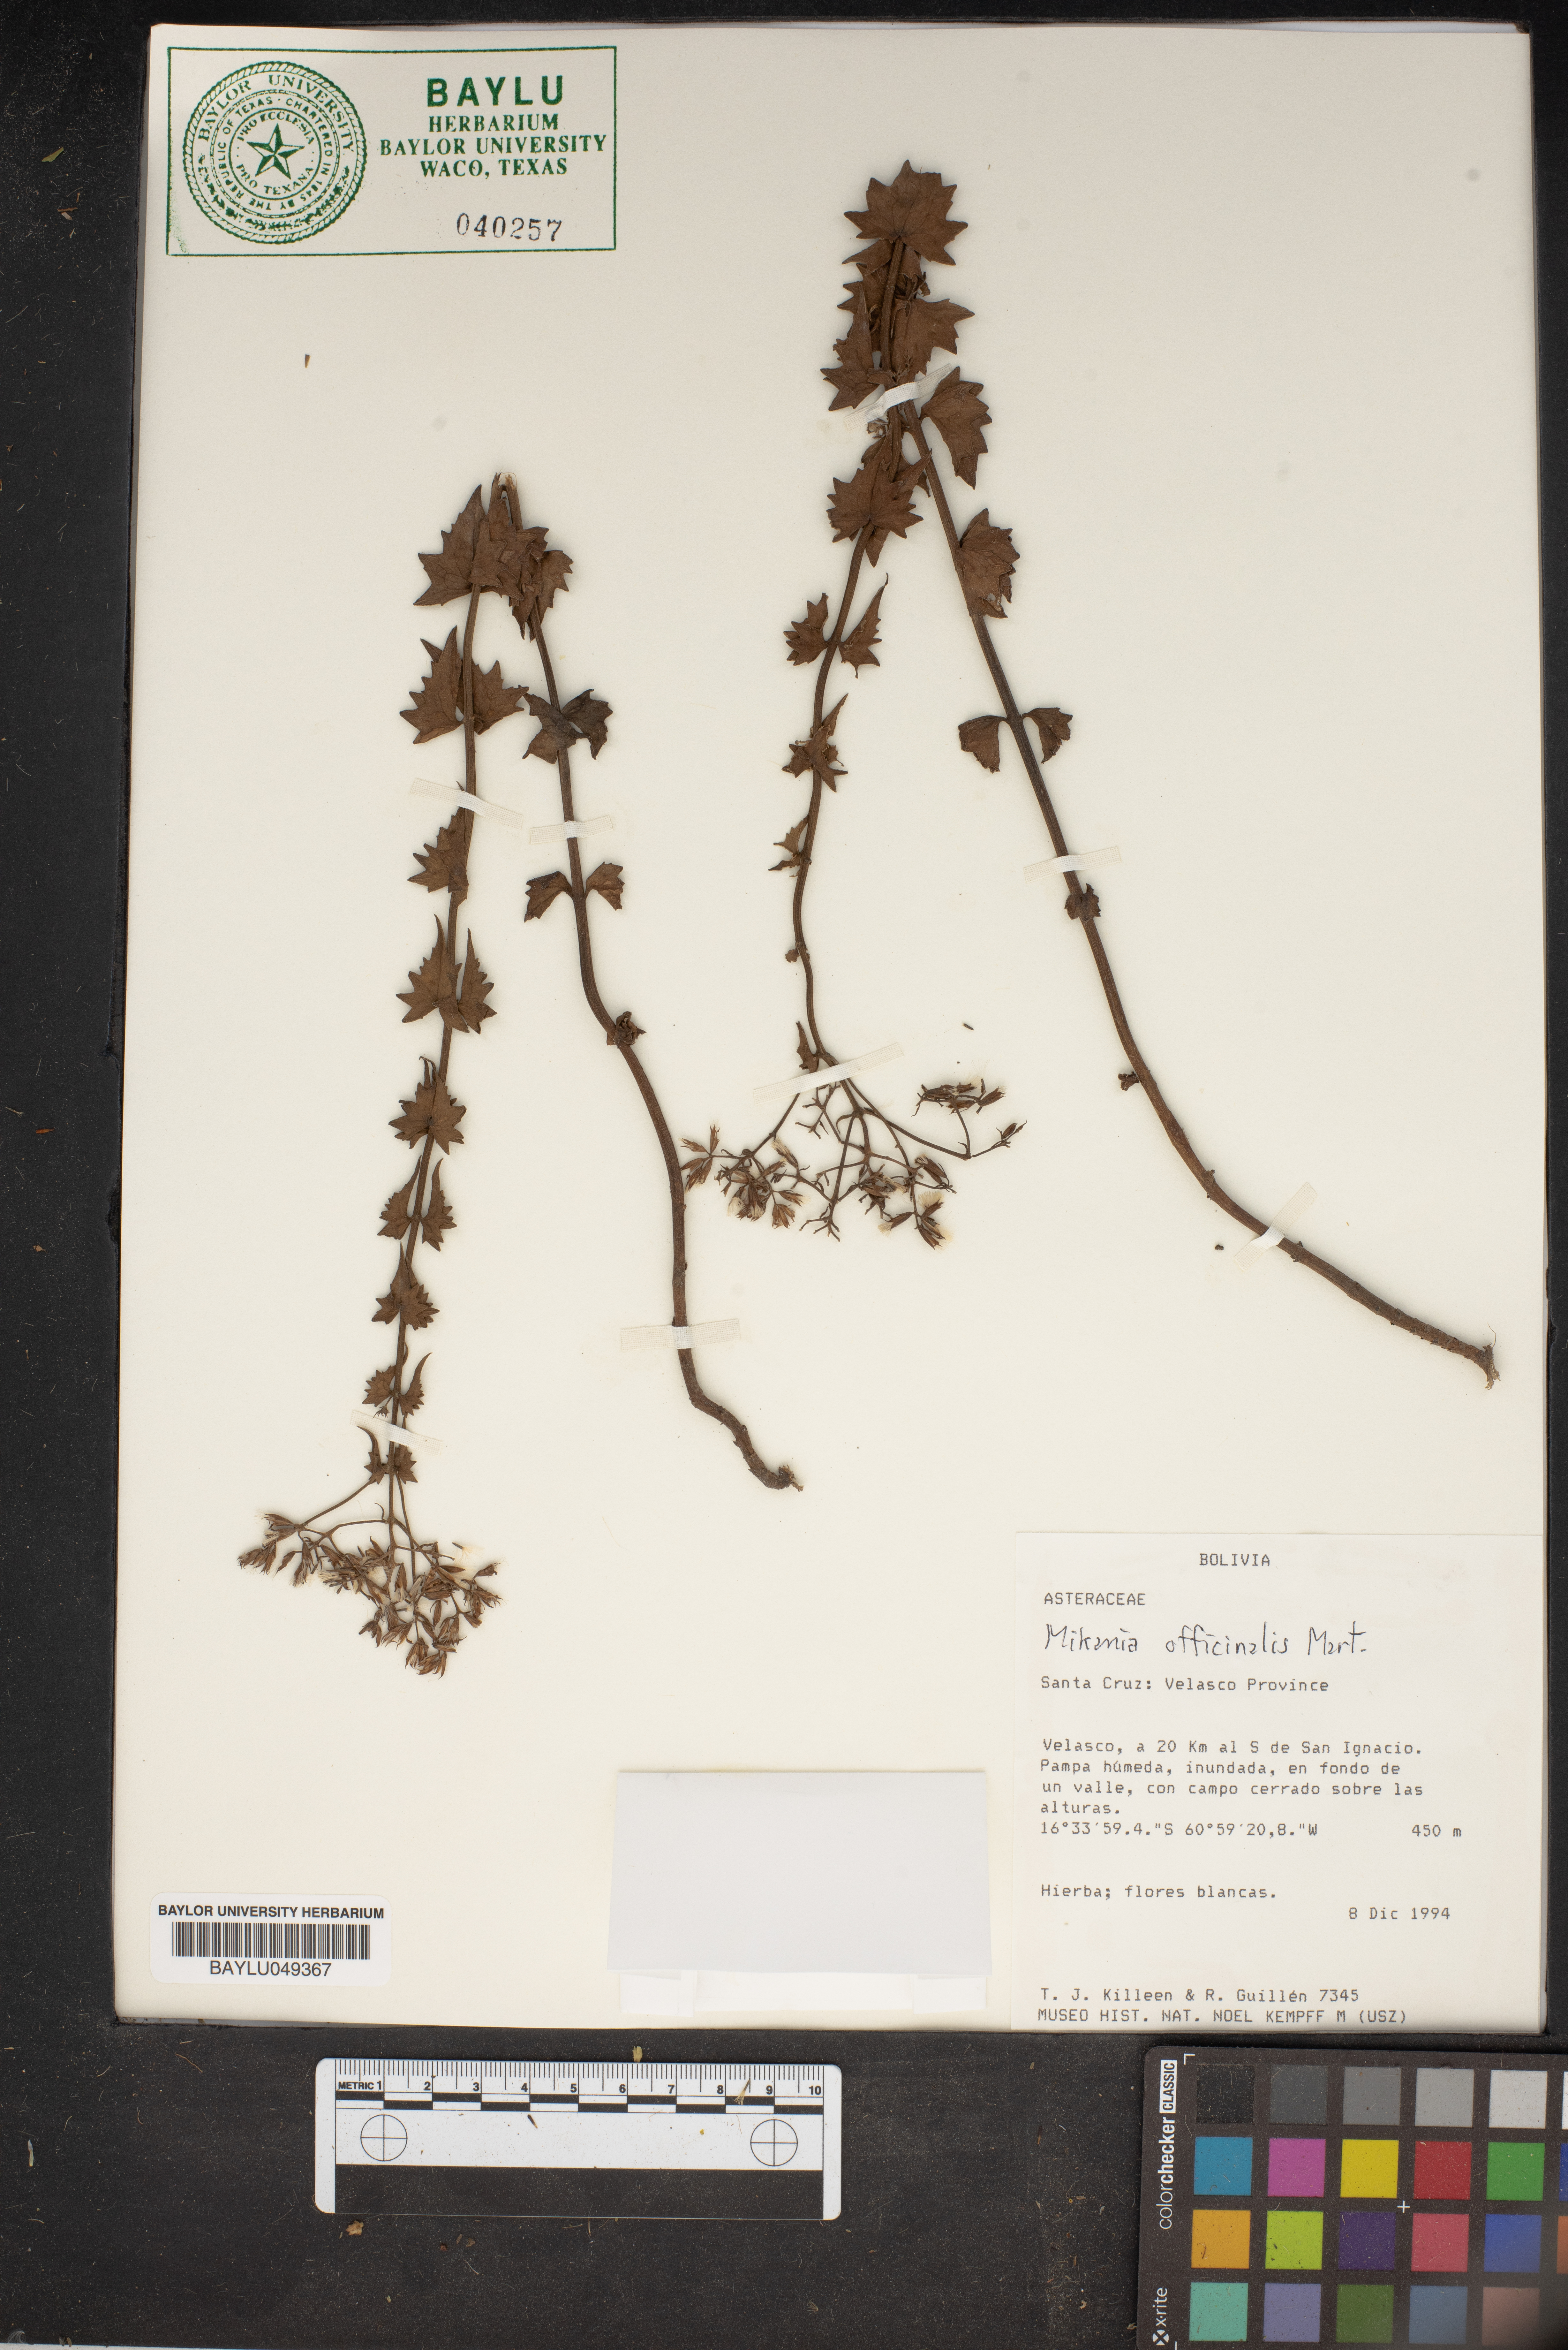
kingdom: Plantae
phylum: Tracheophyta
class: Magnoliopsida
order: Asterales
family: Asteraceae
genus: Mikania
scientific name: Mikania officinalis
